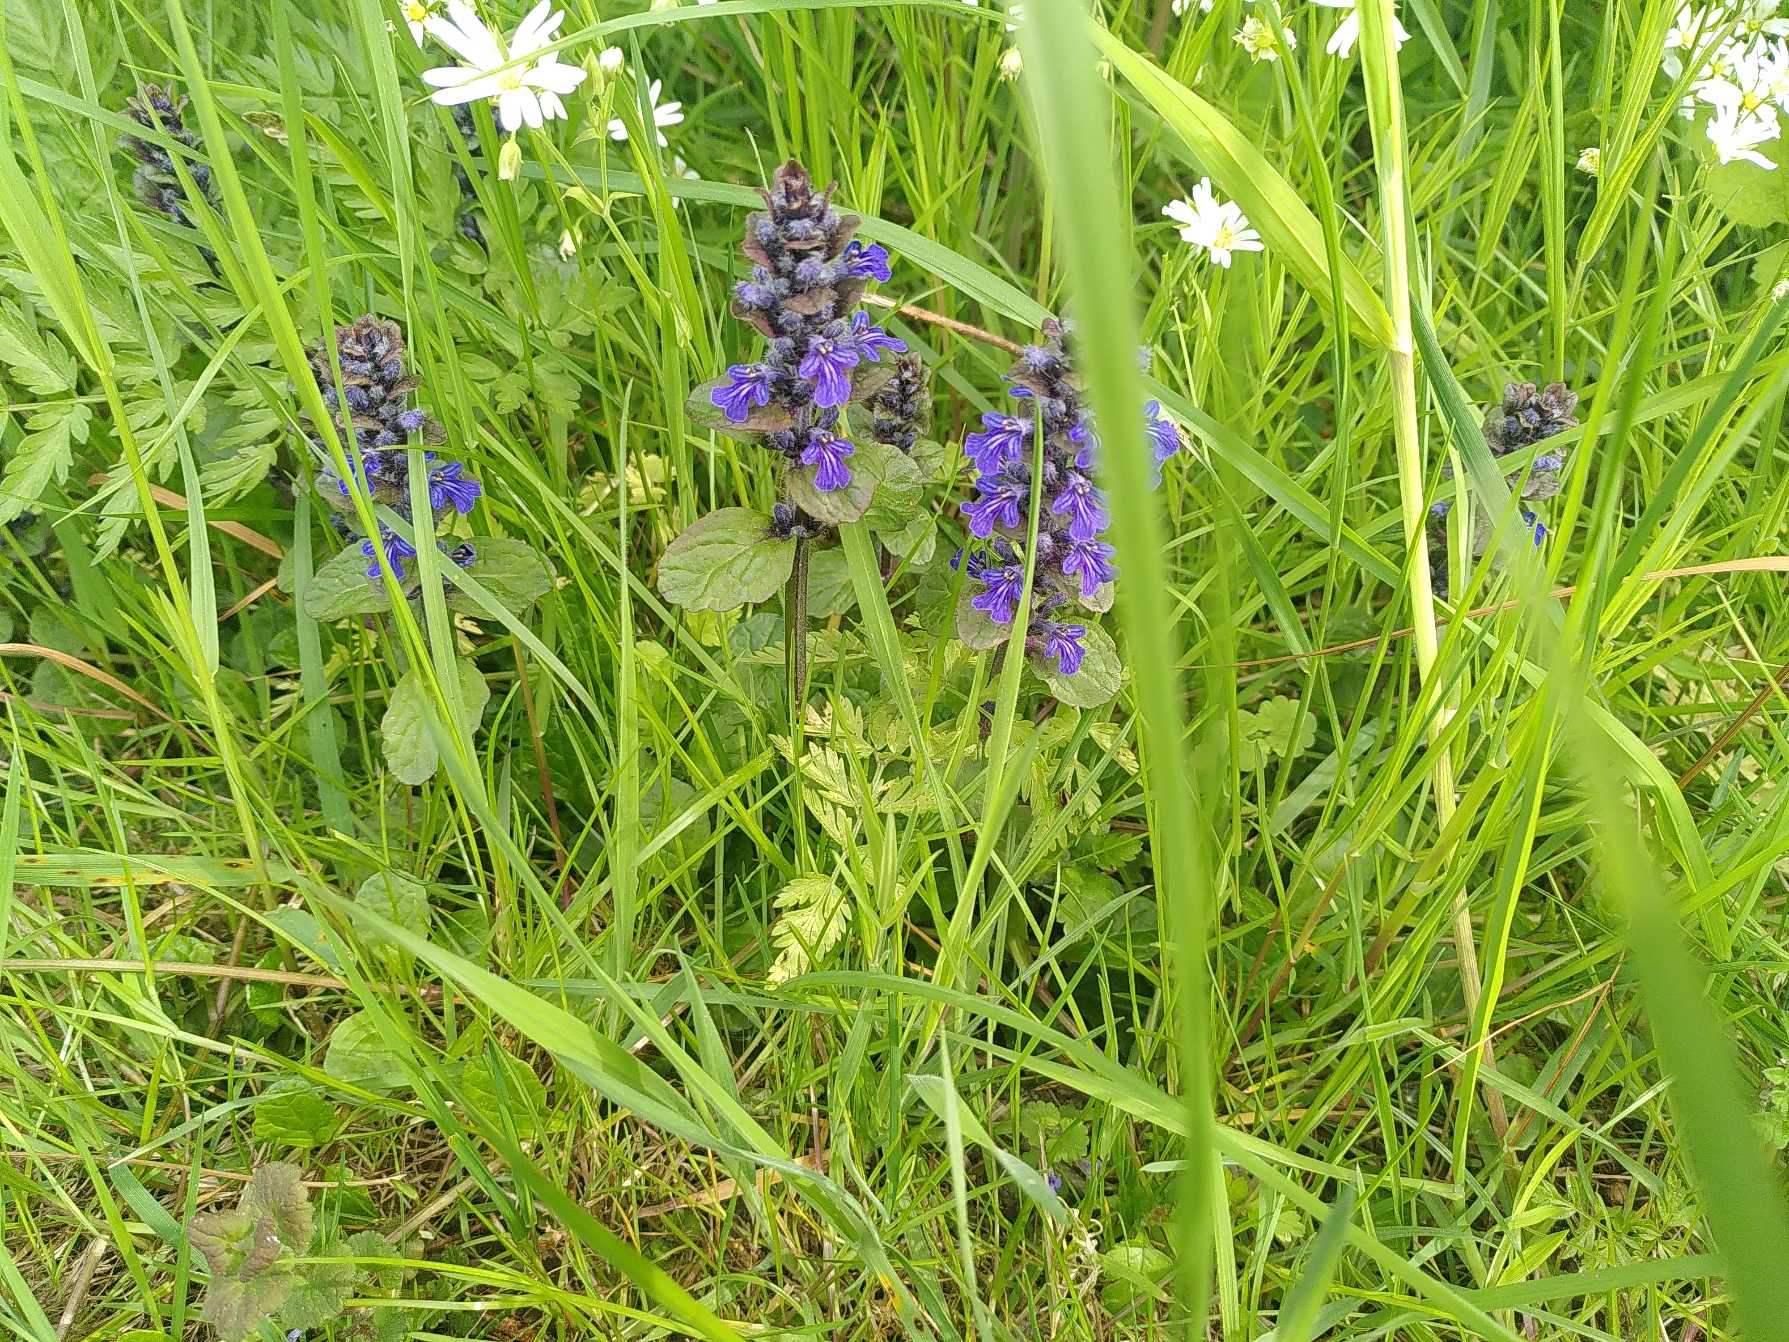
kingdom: Plantae
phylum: Tracheophyta
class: Magnoliopsida
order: Lamiales
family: Lamiaceae
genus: Ajuga
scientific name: Ajuga reptans
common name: Krybende læbeløs
